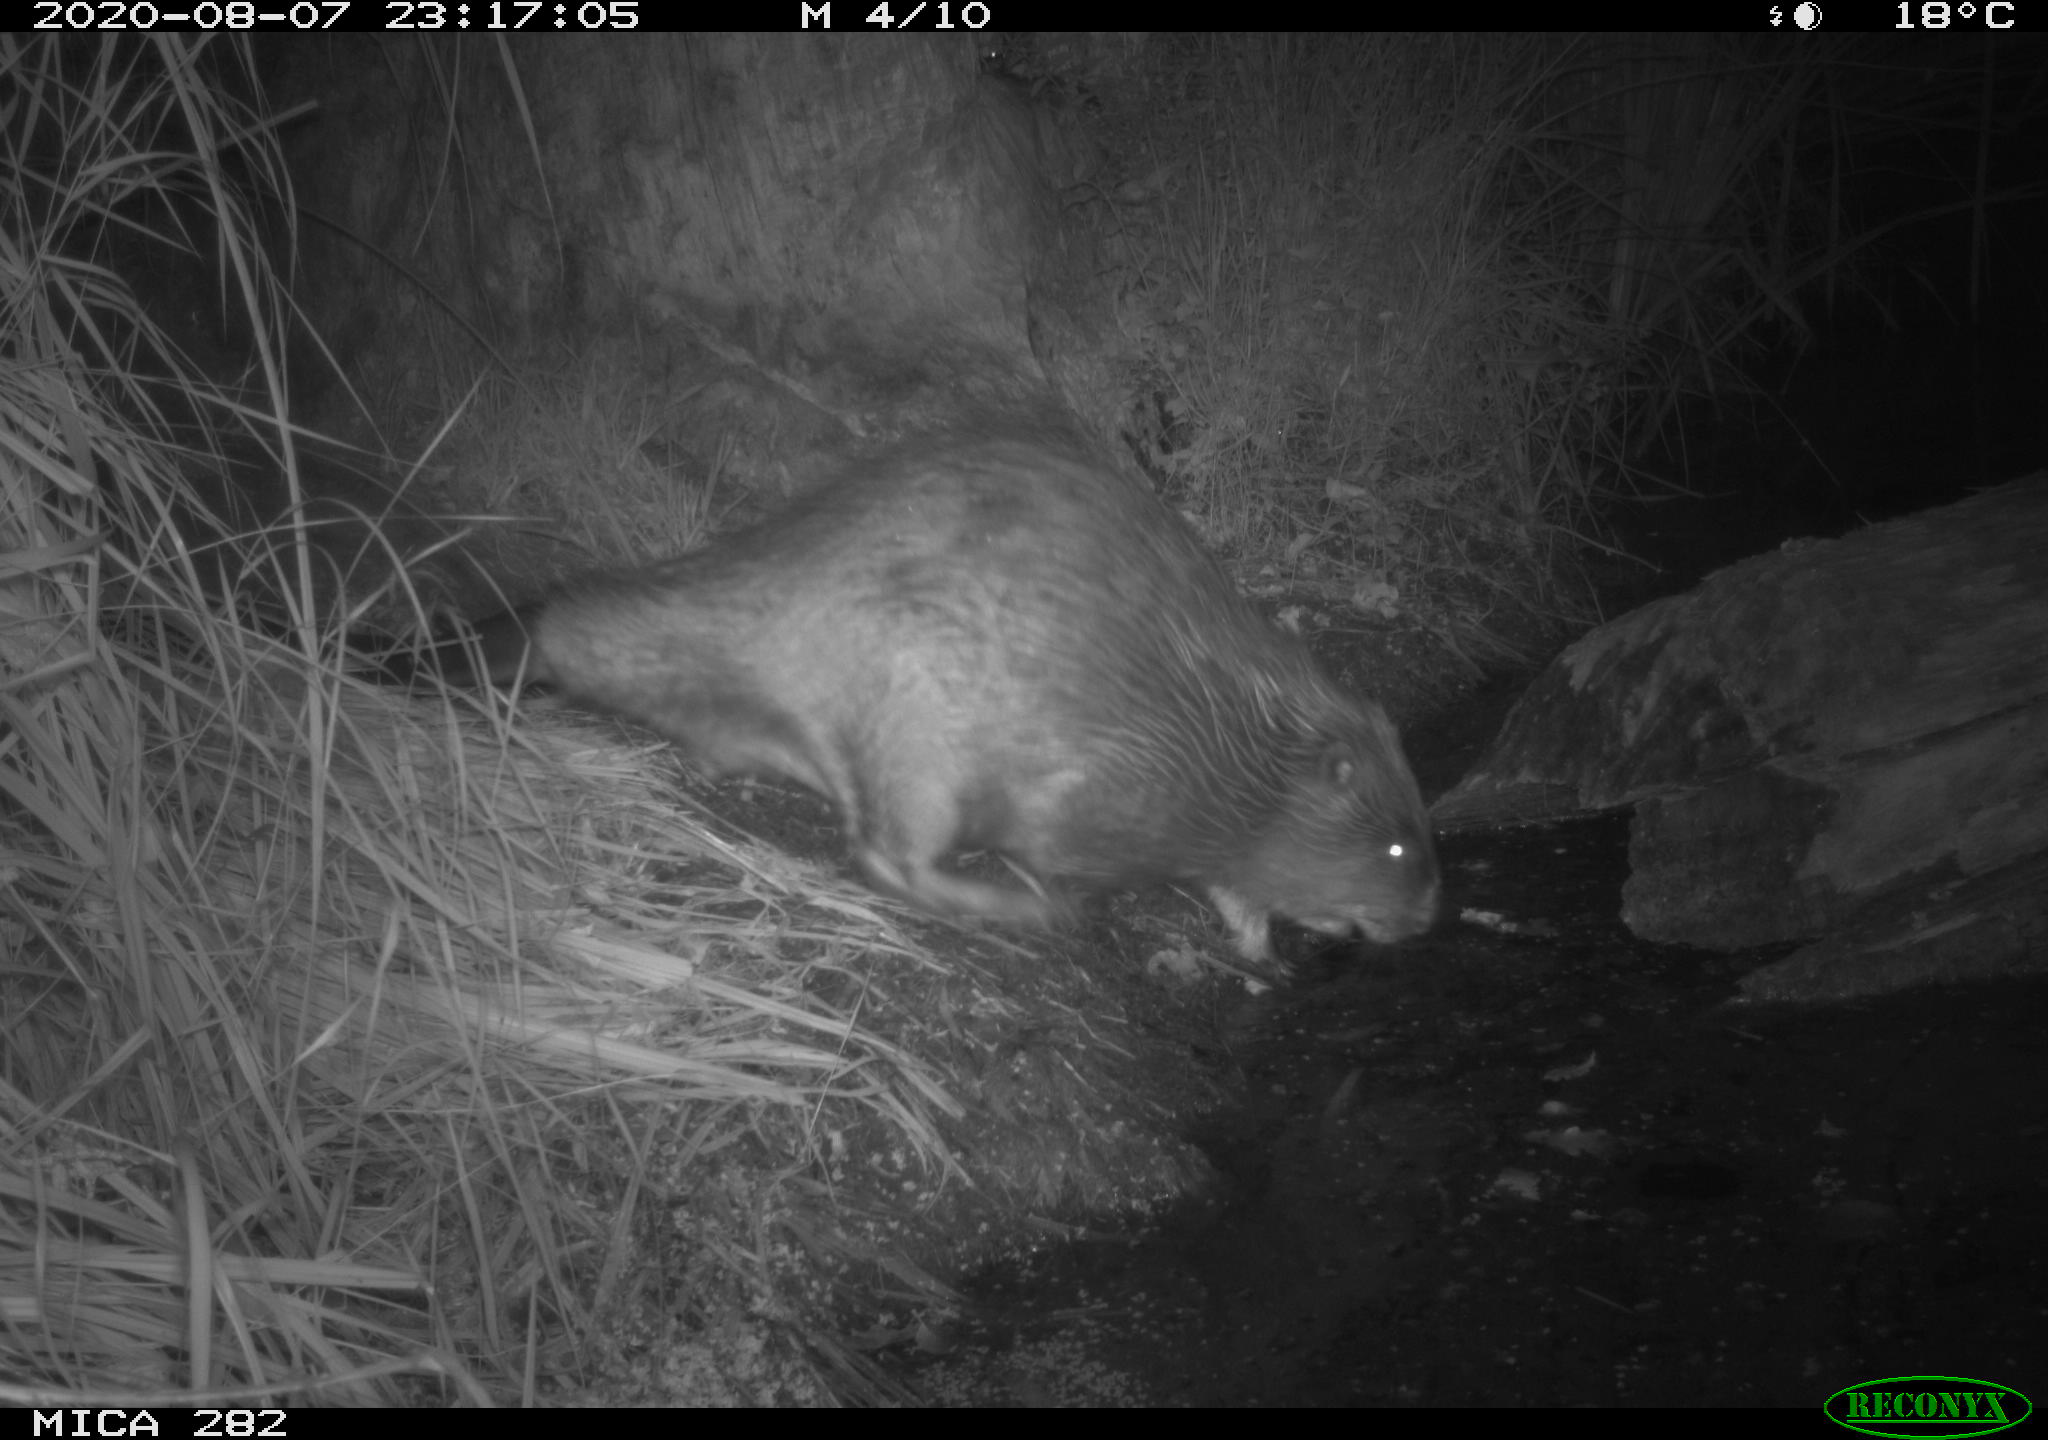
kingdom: Animalia
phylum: Chordata
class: Mammalia
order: Rodentia
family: Castoridae
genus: Castor
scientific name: Castor fiber
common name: Eurasian beaver
